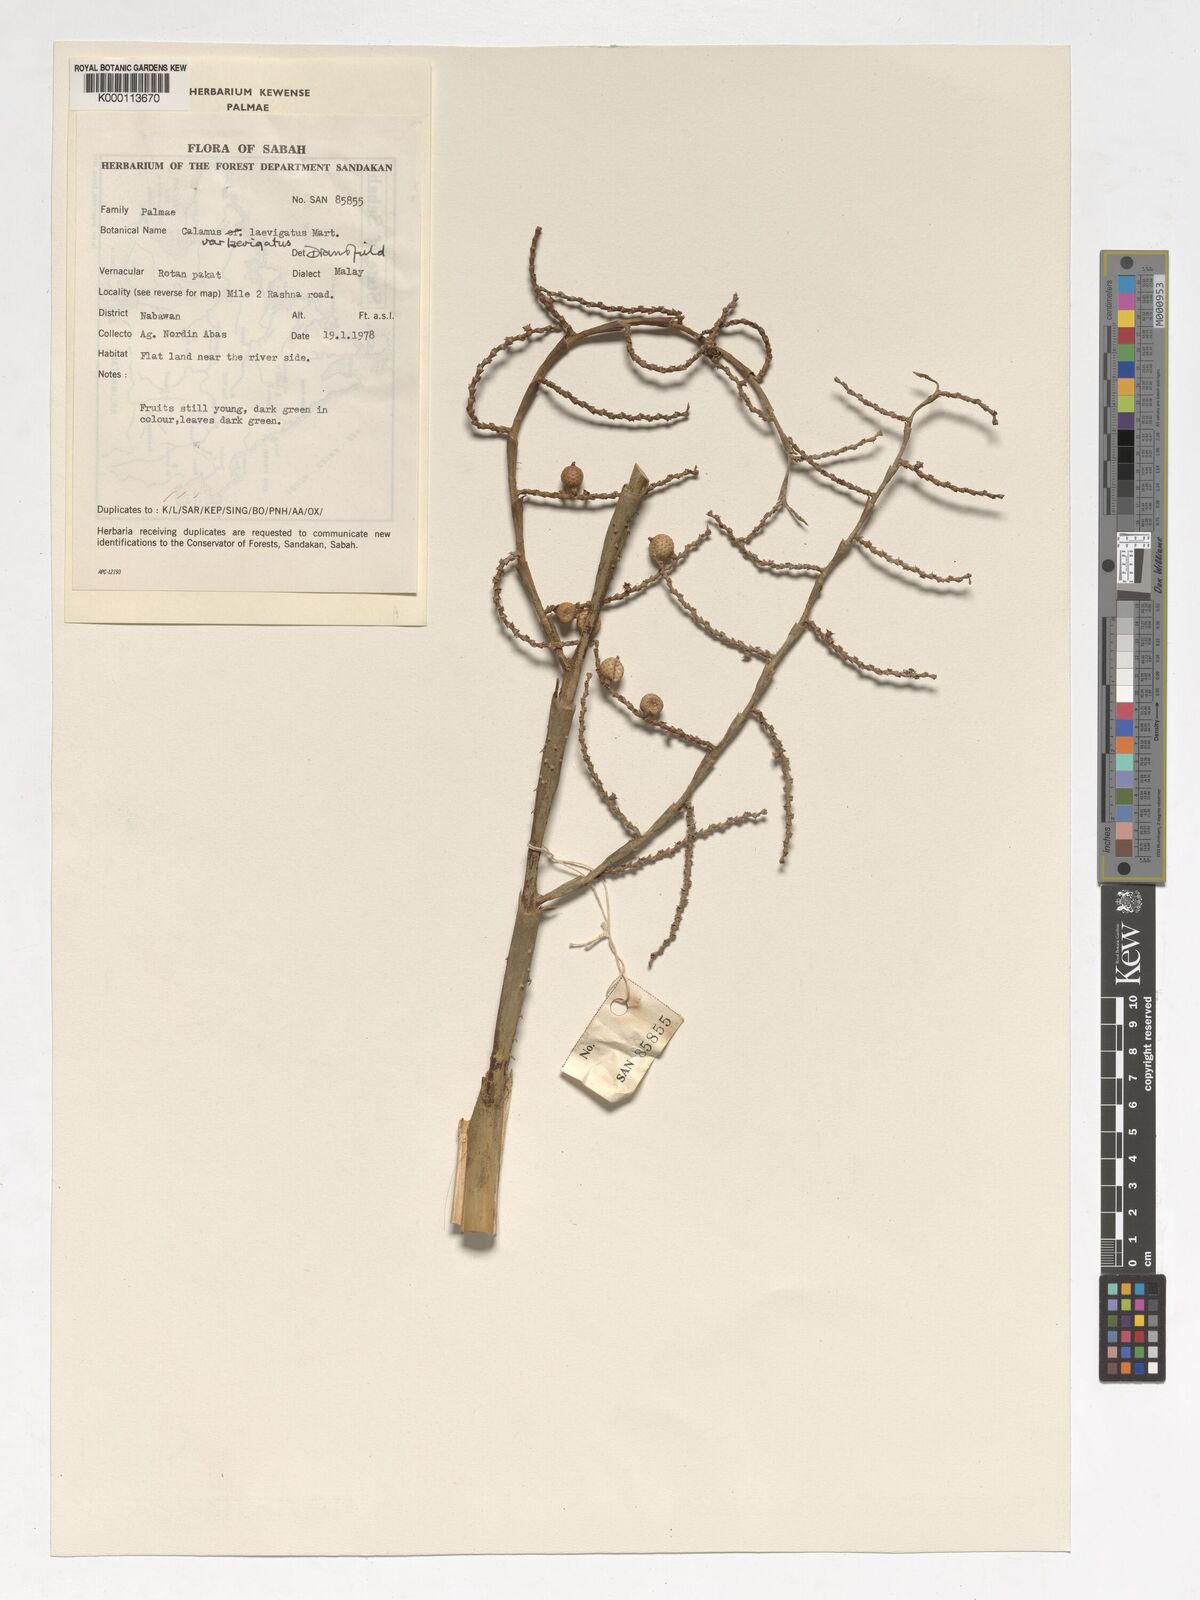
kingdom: Plantae
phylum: Tracheophyta
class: Liliopsida
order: Arecales
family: Arecaceae
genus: Calamus
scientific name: Calamus
